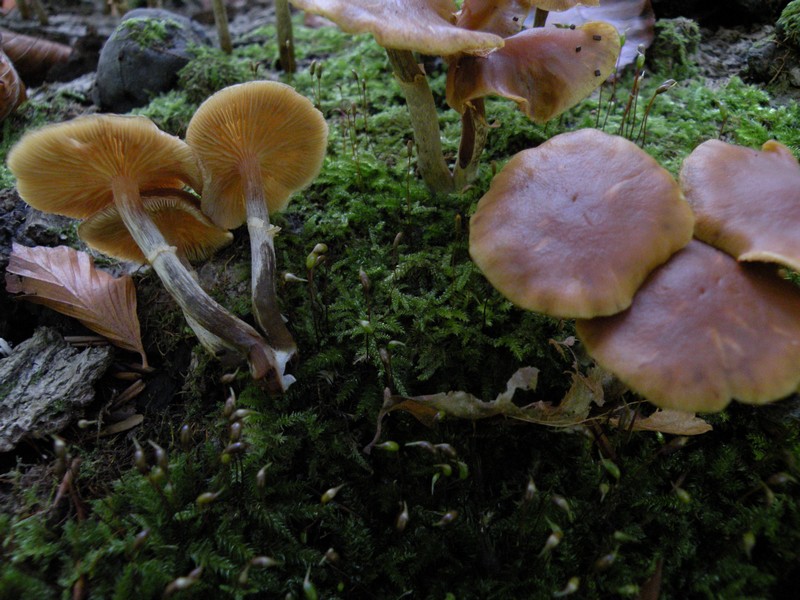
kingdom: Fungi
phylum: Basidiomycota
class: Agaricomycetes
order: Agaricales
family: Hymenogastraceae
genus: Galerina
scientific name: Galerina marginata
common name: randbæltet hjelmhat
